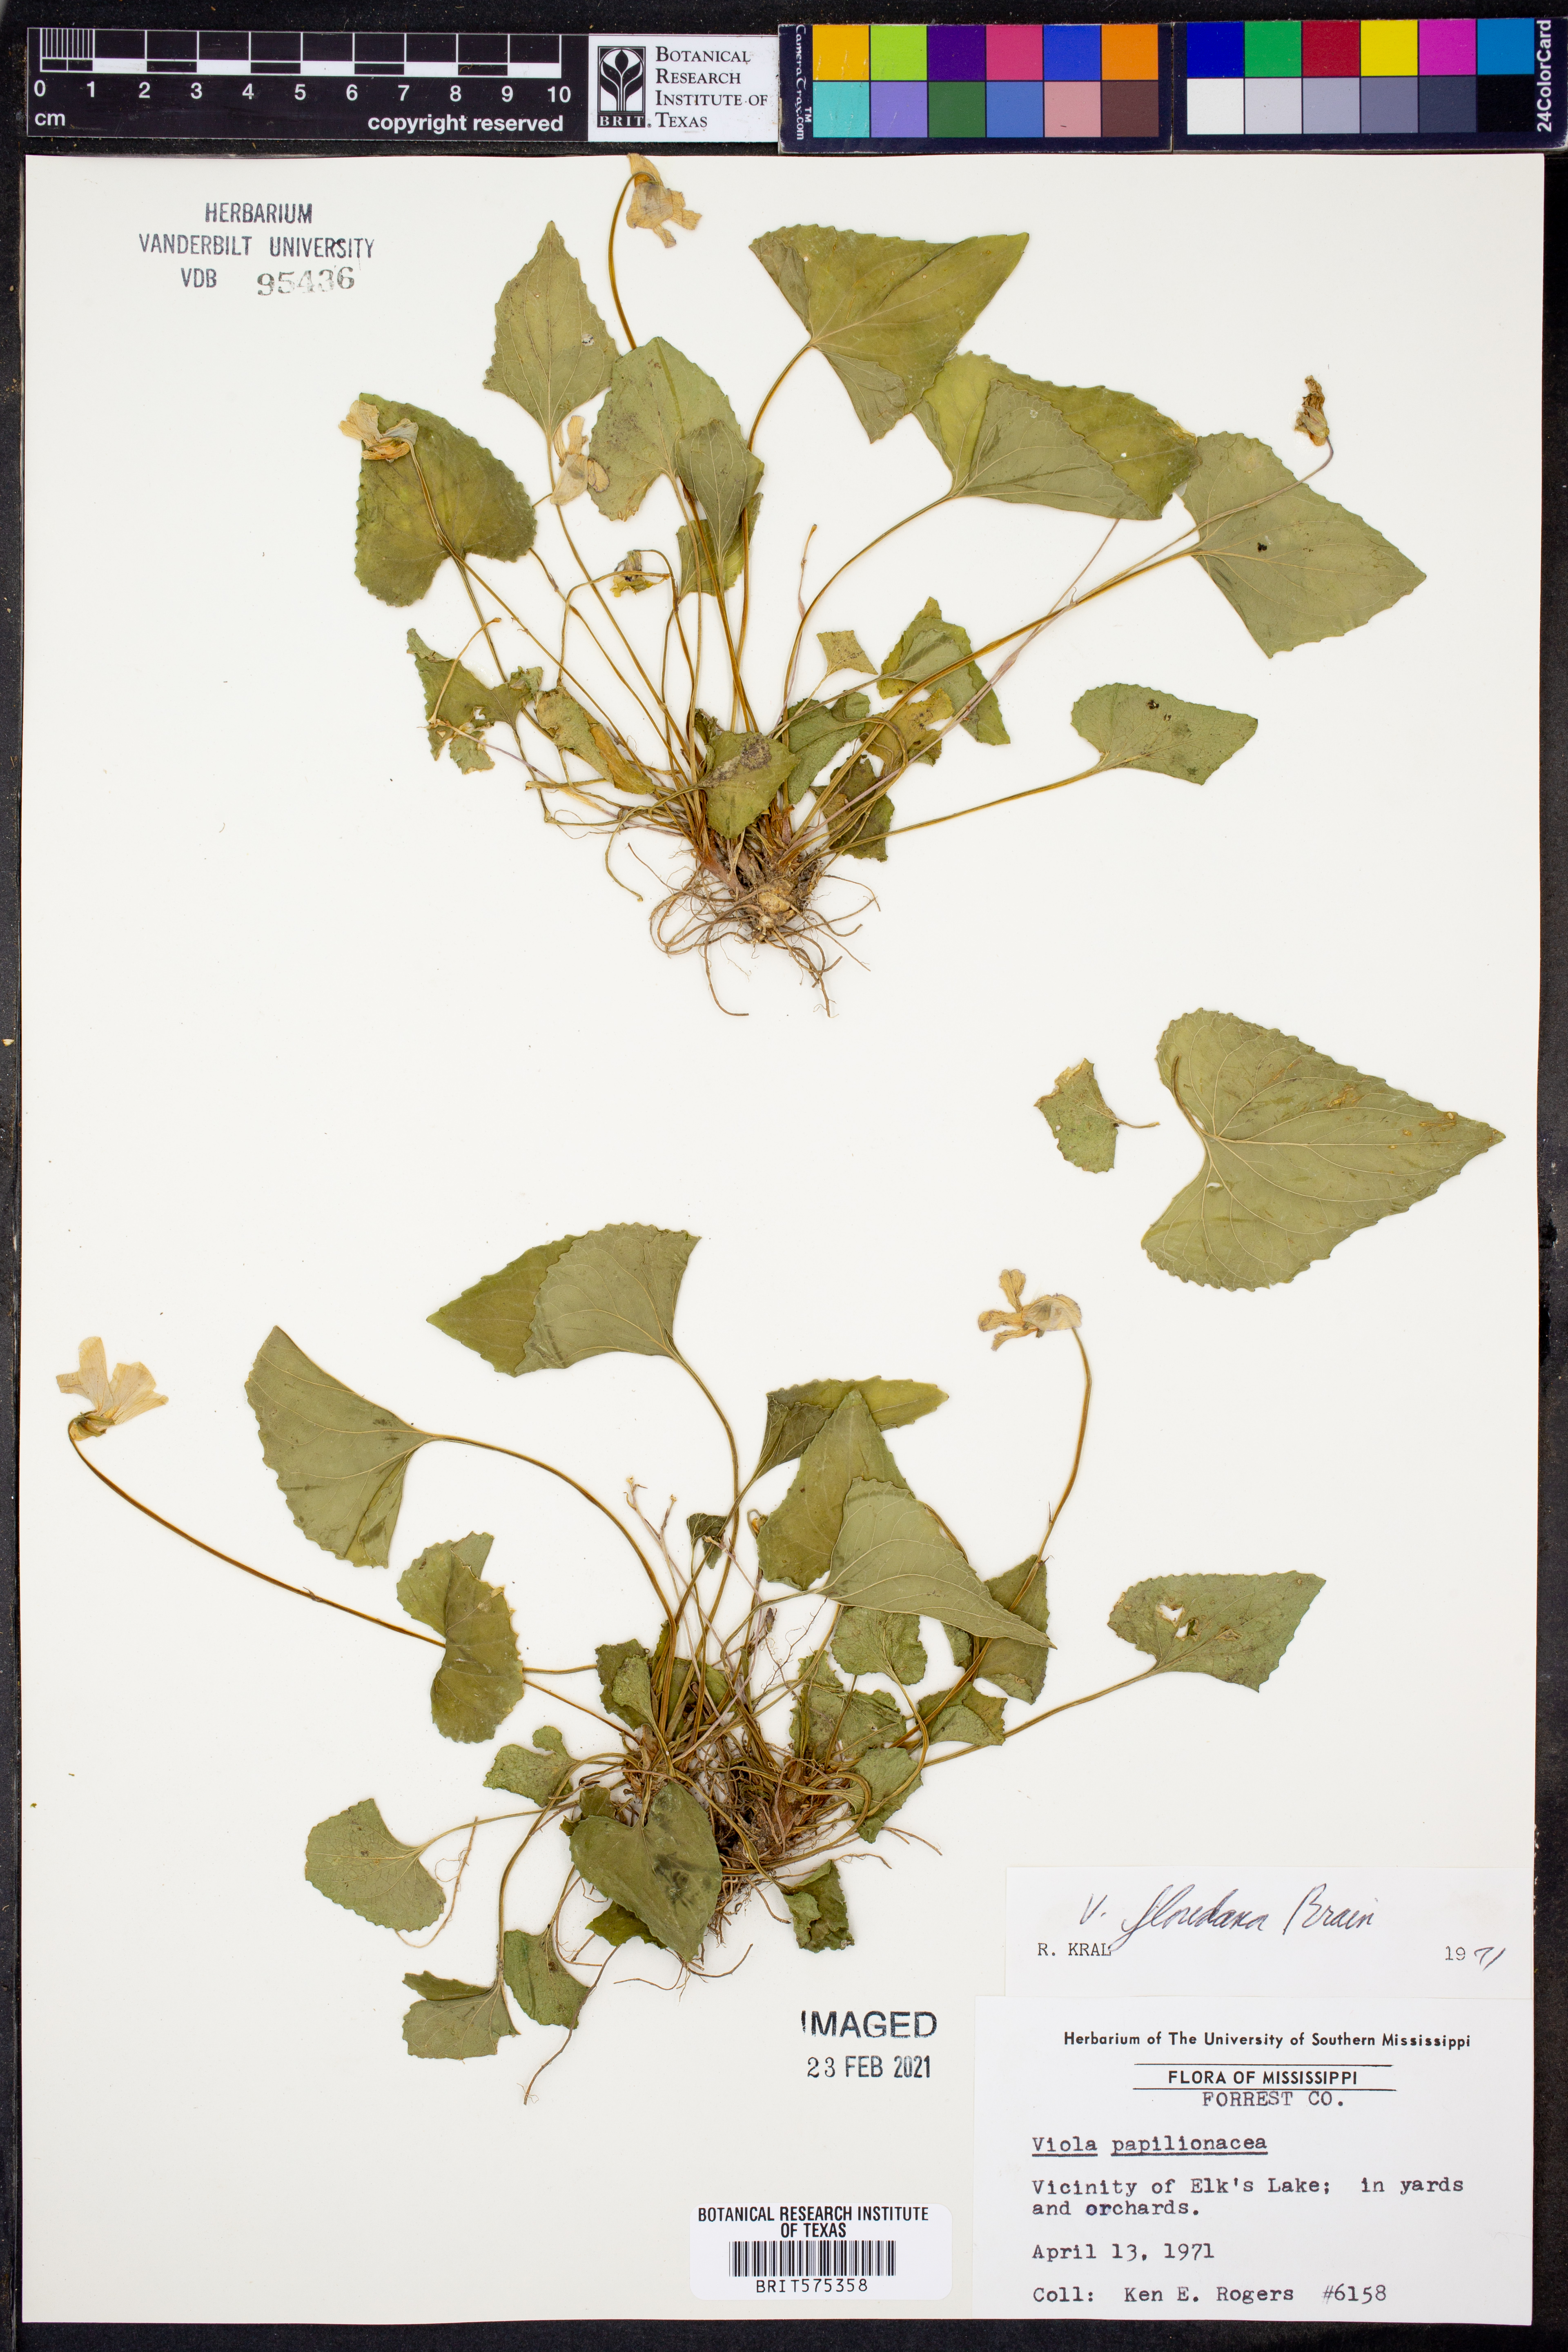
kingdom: Plantae
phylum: Tracheophyta
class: Magnoliopsida
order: Malpighiales
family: Violaceae
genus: Viola
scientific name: Viola floridana
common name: Florida violet
